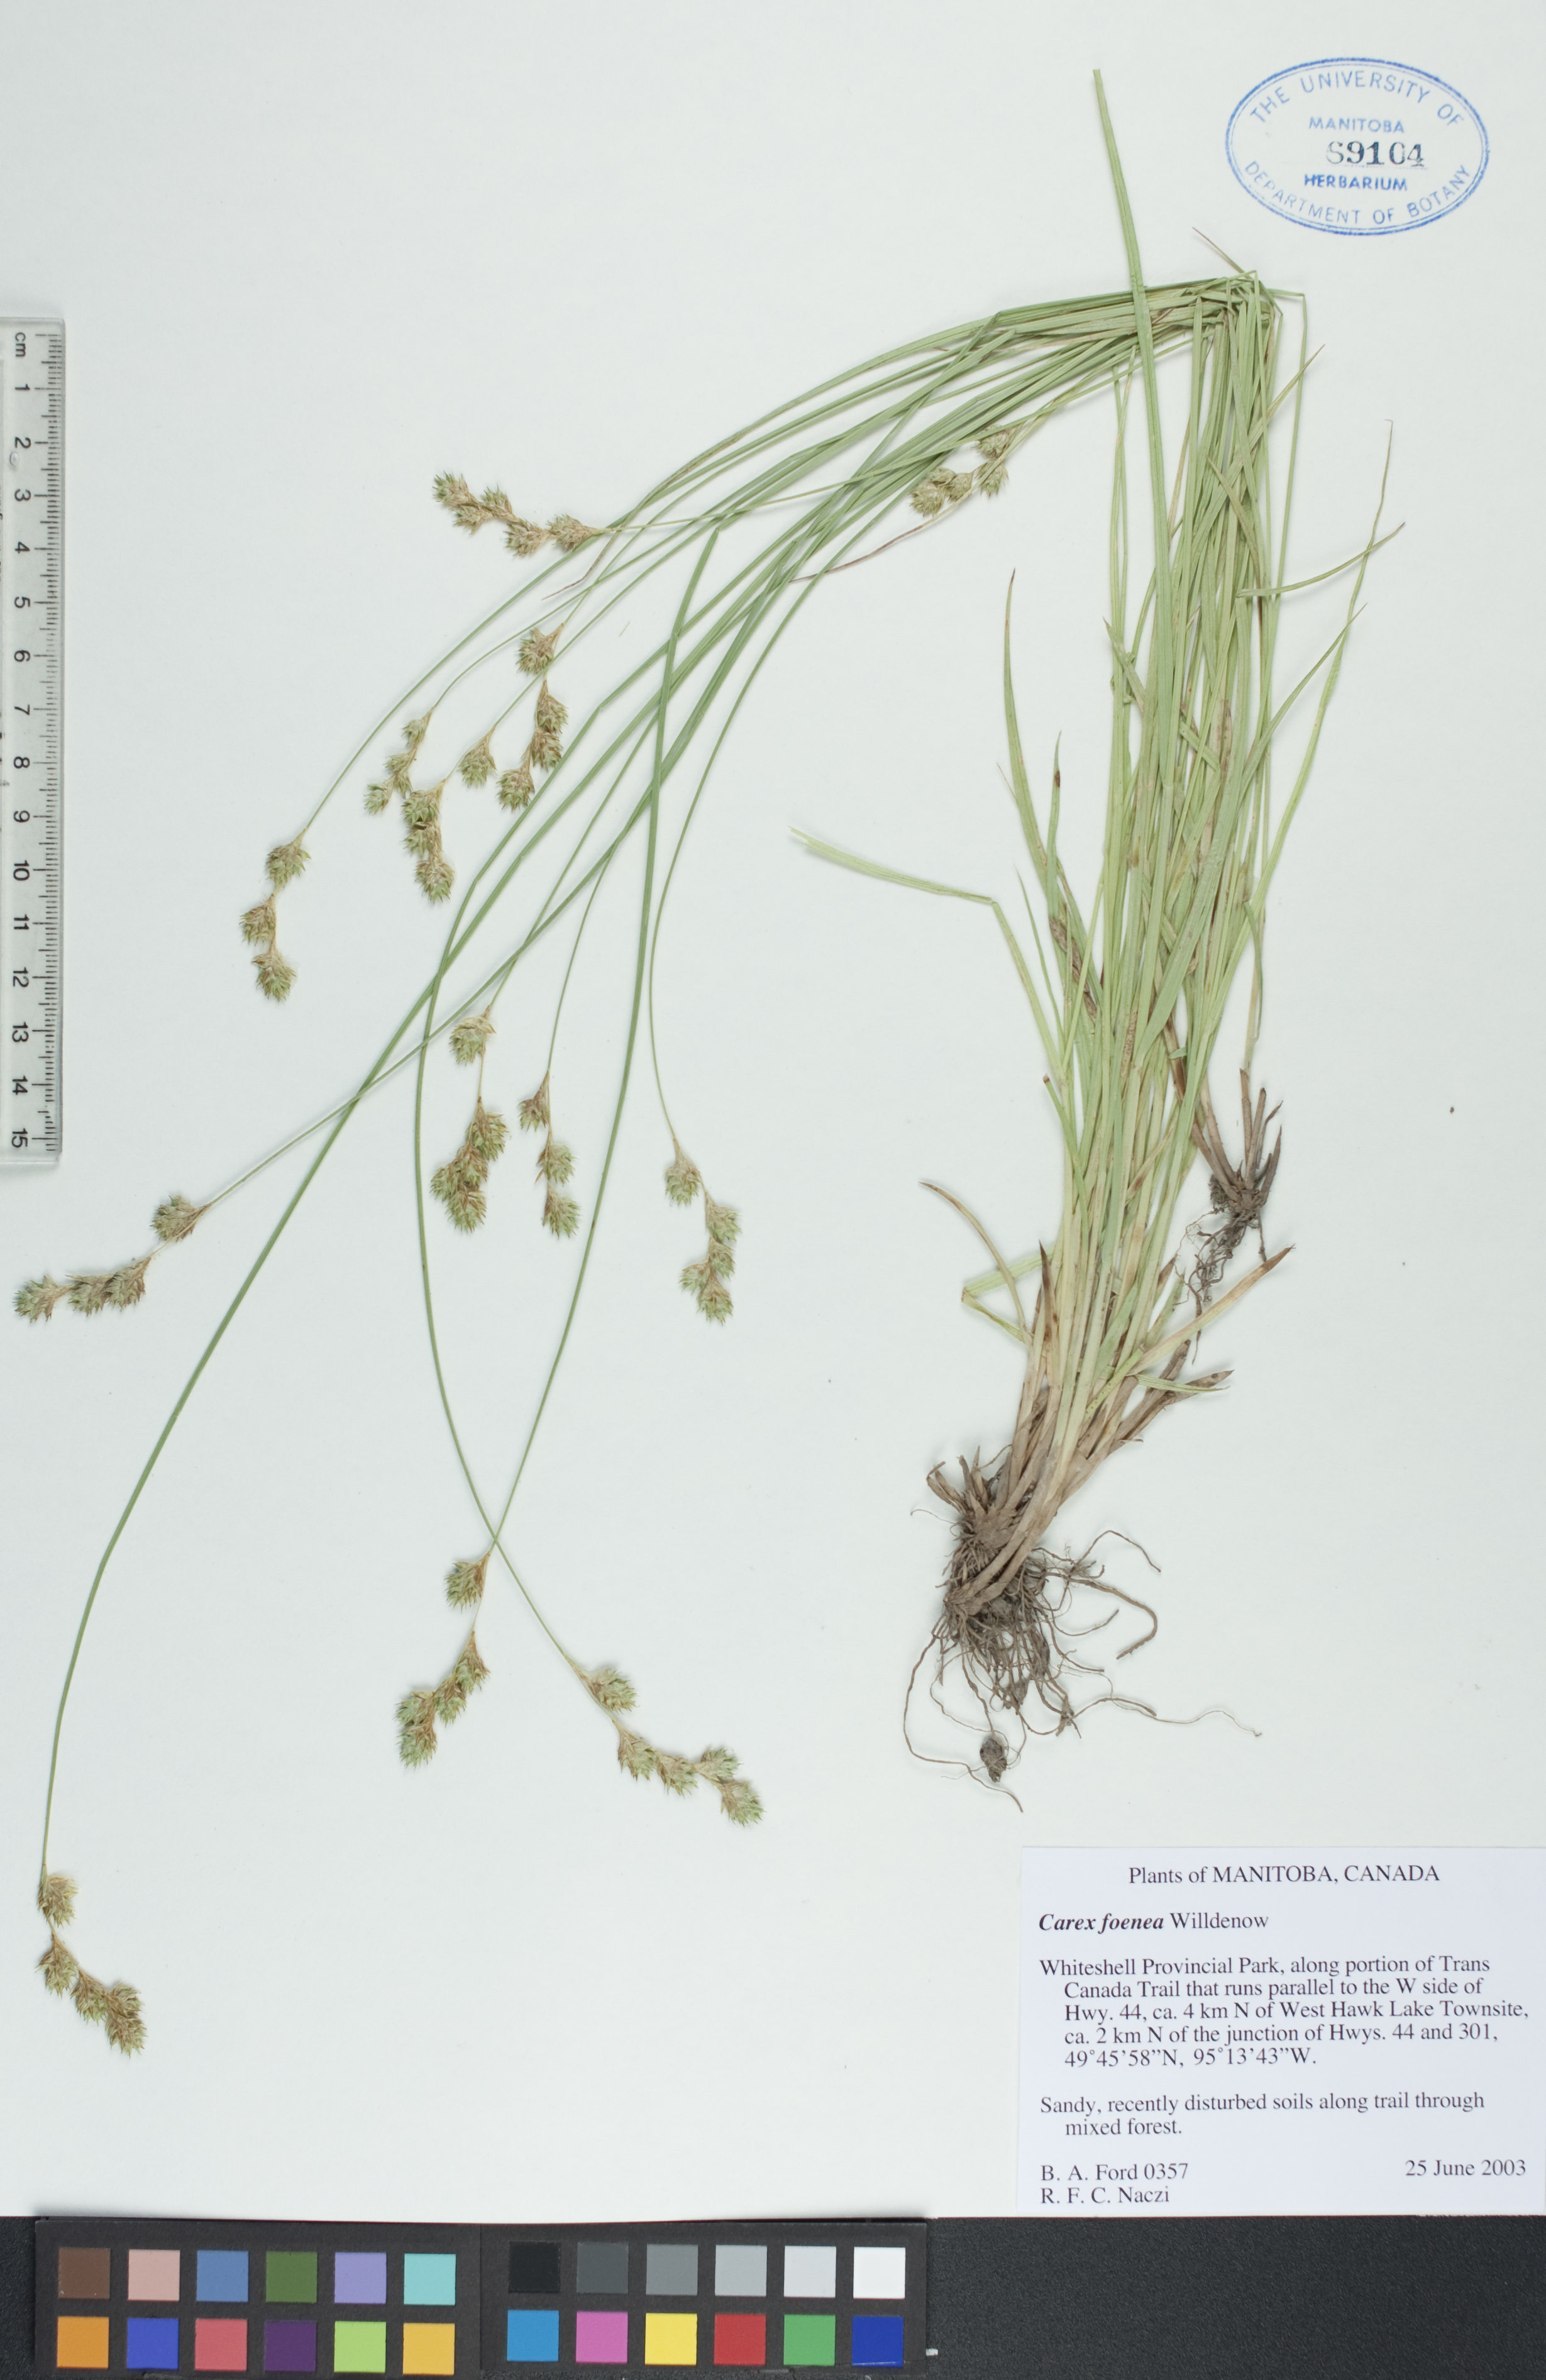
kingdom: Plantae
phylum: Tracheophyta
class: Liliopsida
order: Poales
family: Cyperaceae
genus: Carex
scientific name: Carex foenea
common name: Bronze sedge
